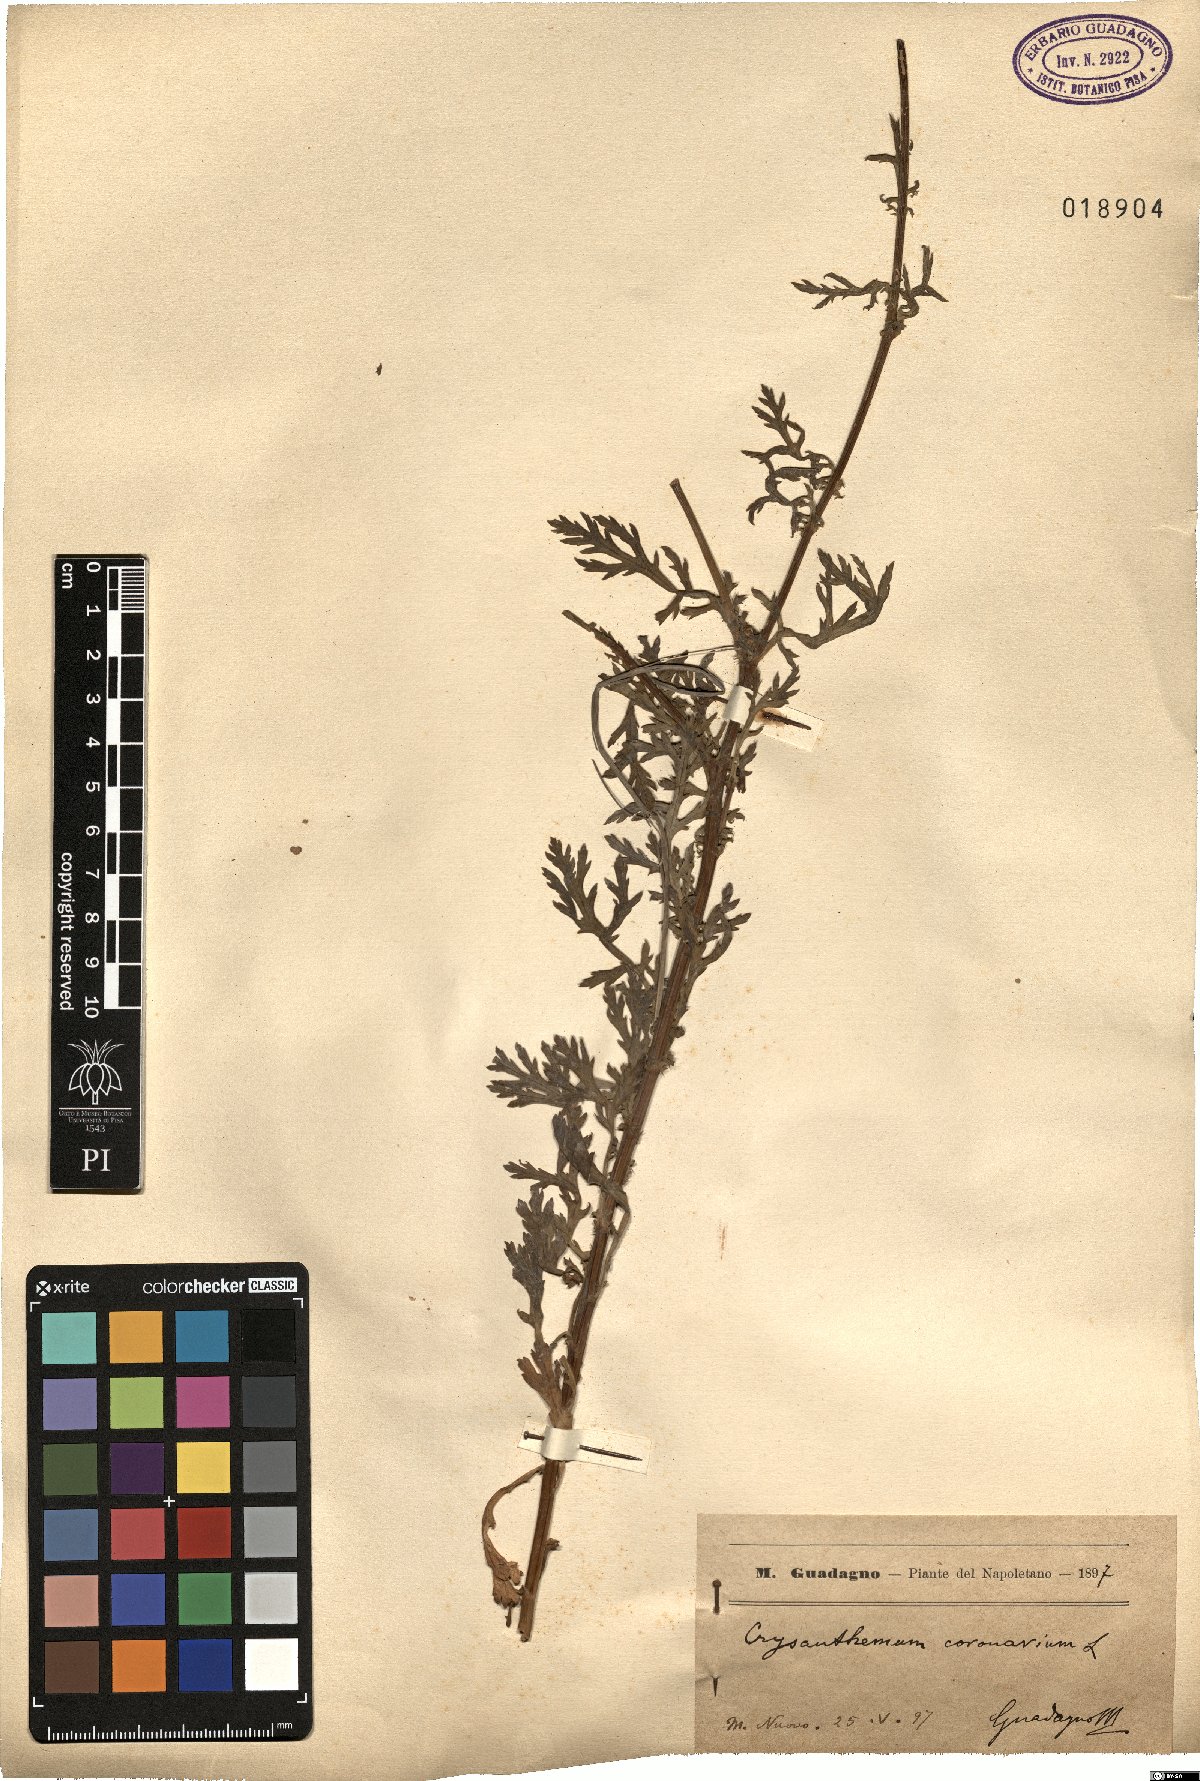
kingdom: Plantae
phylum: Tracheophyta
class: Magnoliopsida
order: Asterales
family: Asteraceae
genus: Glebionis
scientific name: Glebionis coronaria
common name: Crowndaisy
